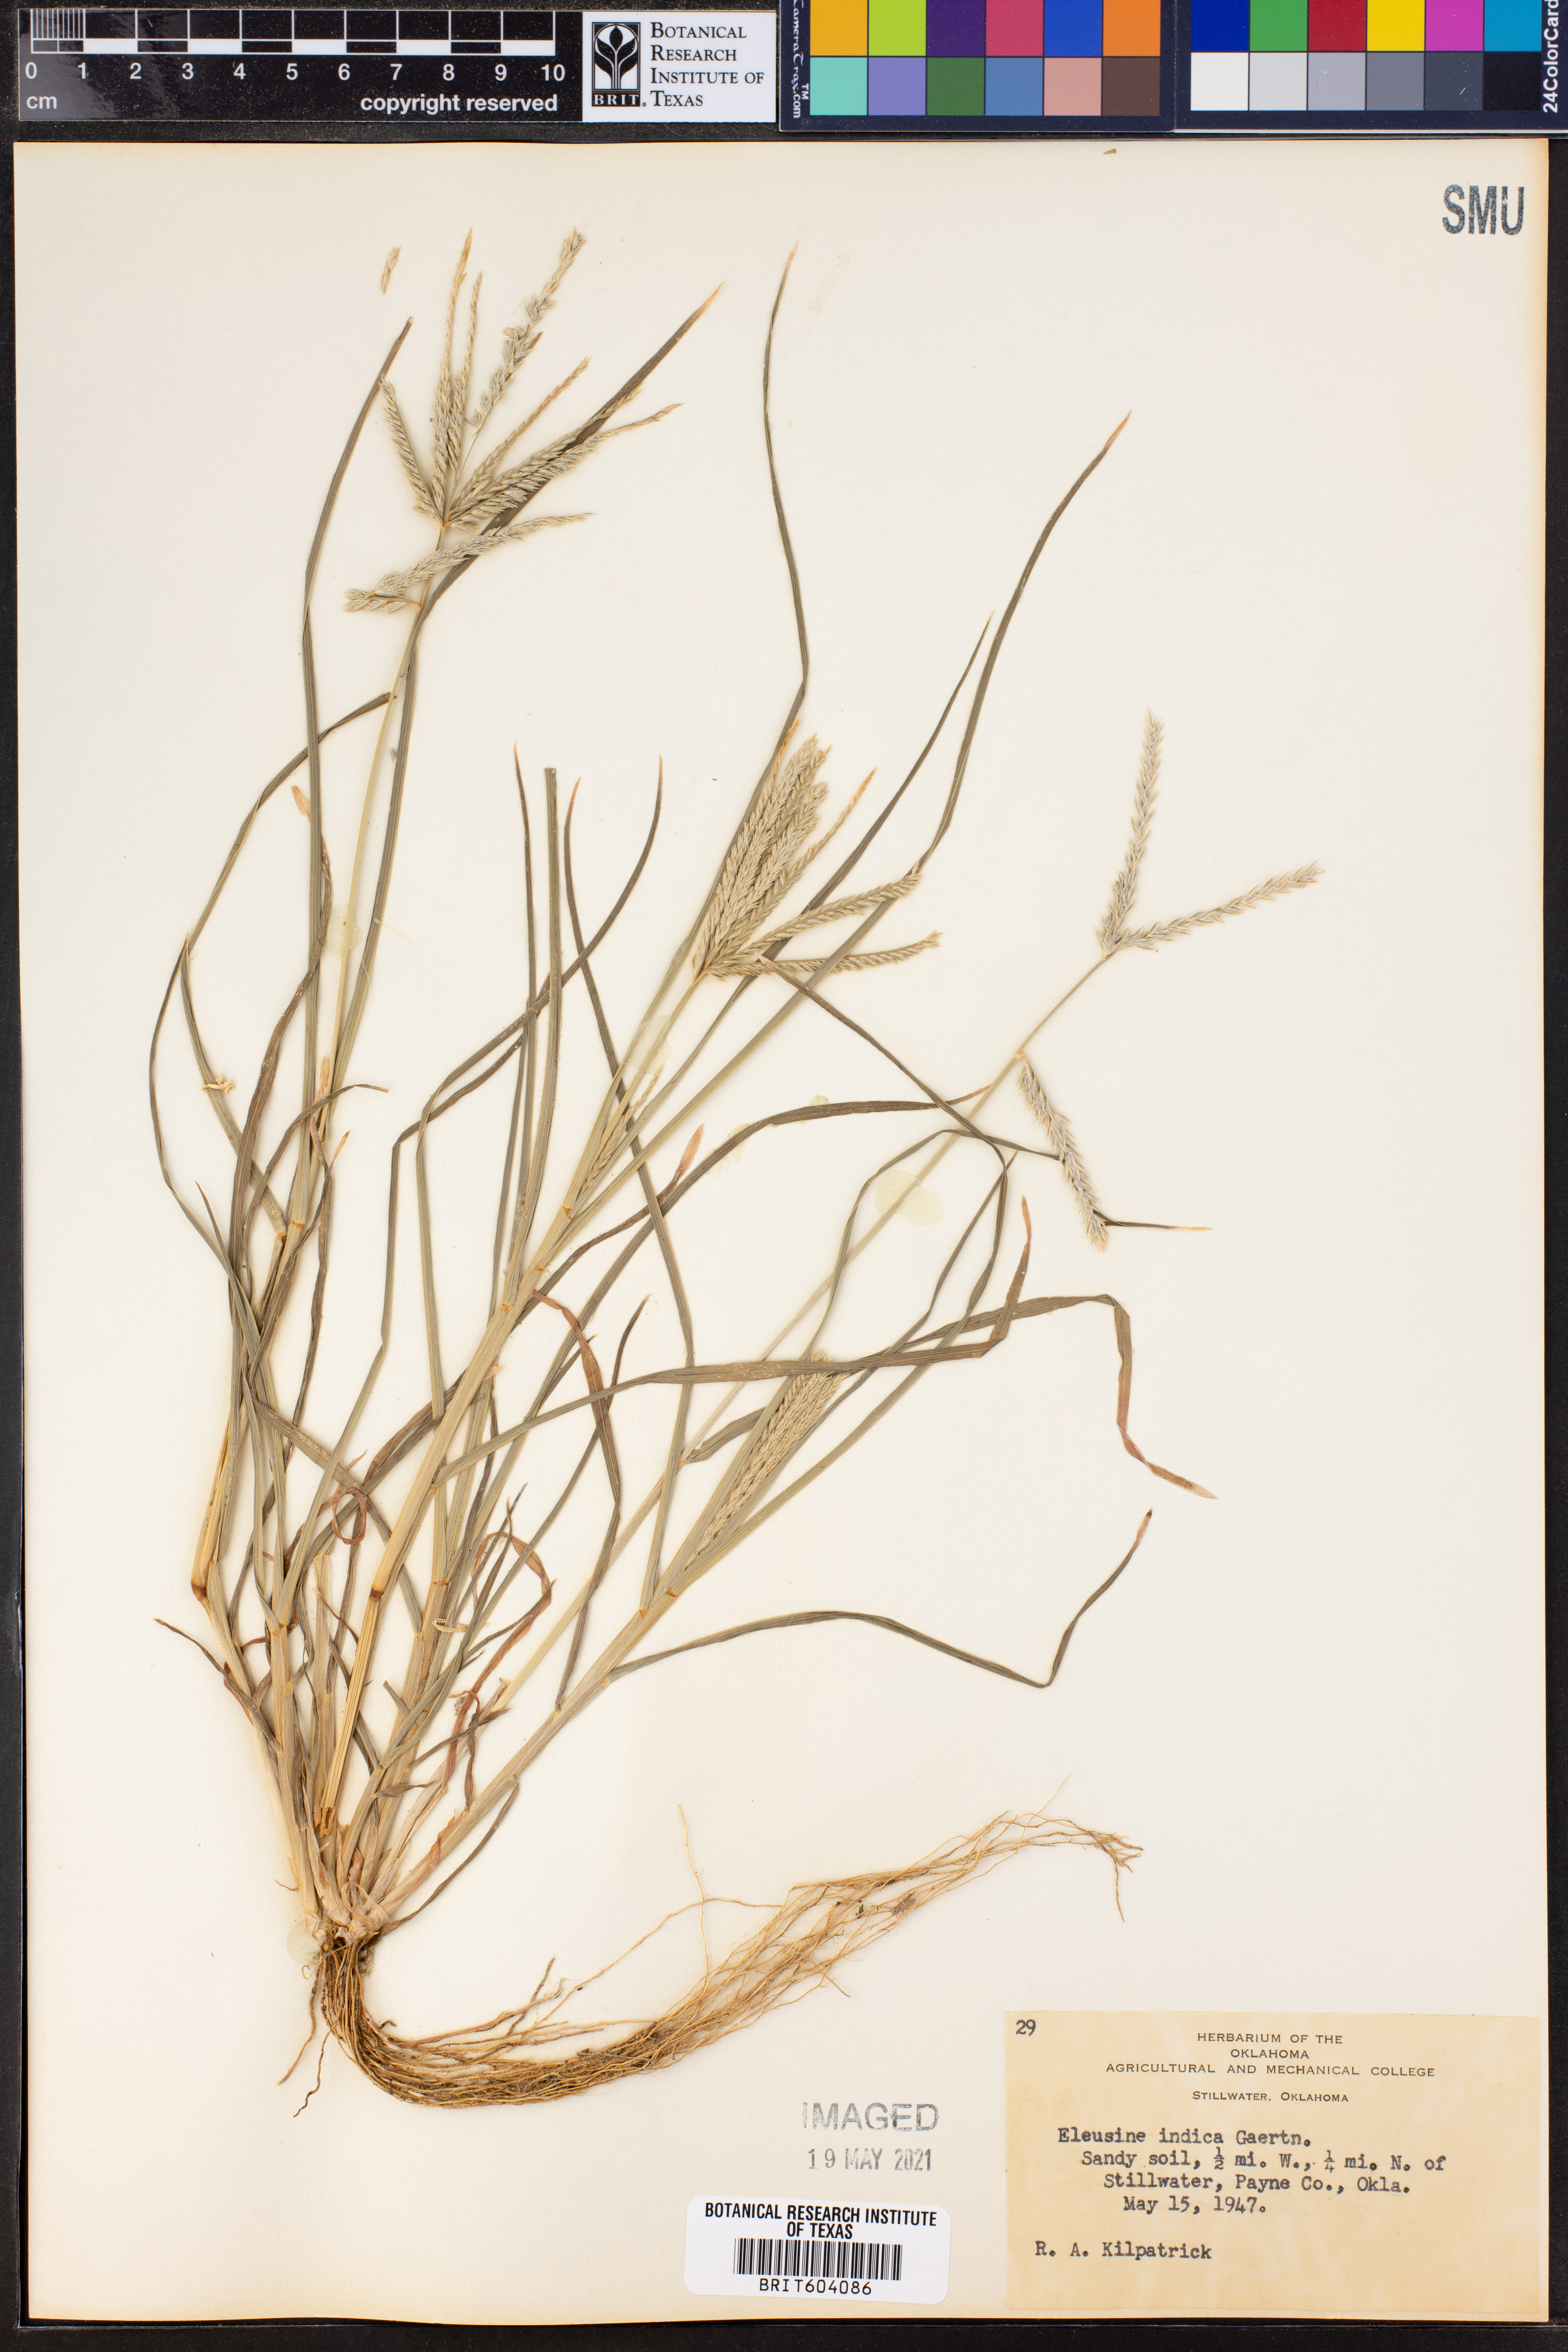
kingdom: Plantae
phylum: Tracheophyta
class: Liliopsida
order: Poales
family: Poaceae
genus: Eleusine
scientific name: Eleusine indica
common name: Yard-grass
